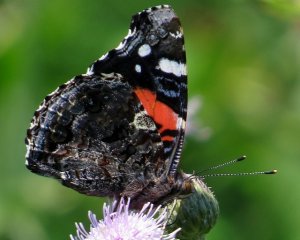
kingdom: Animalia
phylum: Arthropoda
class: Insecta
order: Lepidoptera
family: Nymphalidae
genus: Vanessa
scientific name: Vanessa atalanta
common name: Red Admiral
